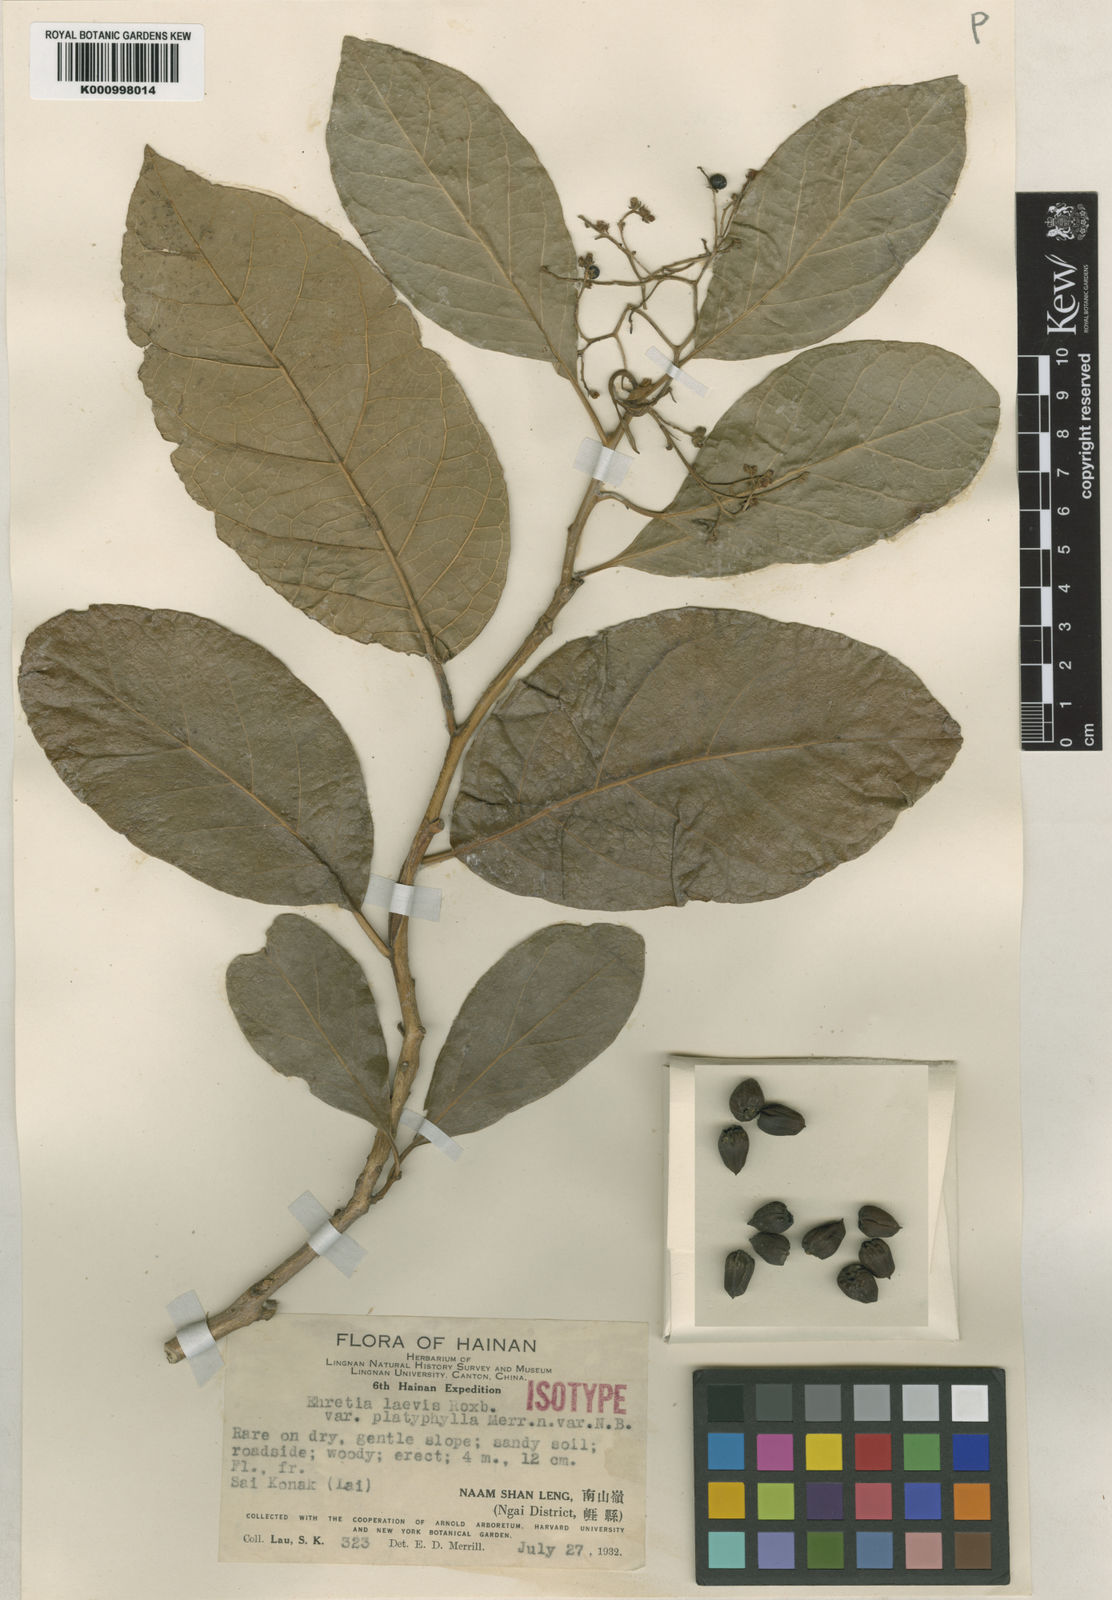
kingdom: Plantae
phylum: Tracheophyta
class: Magnoliopsida
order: Boraginales
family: Ehretiaceae
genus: Ehretia
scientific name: Ehretia laevis
